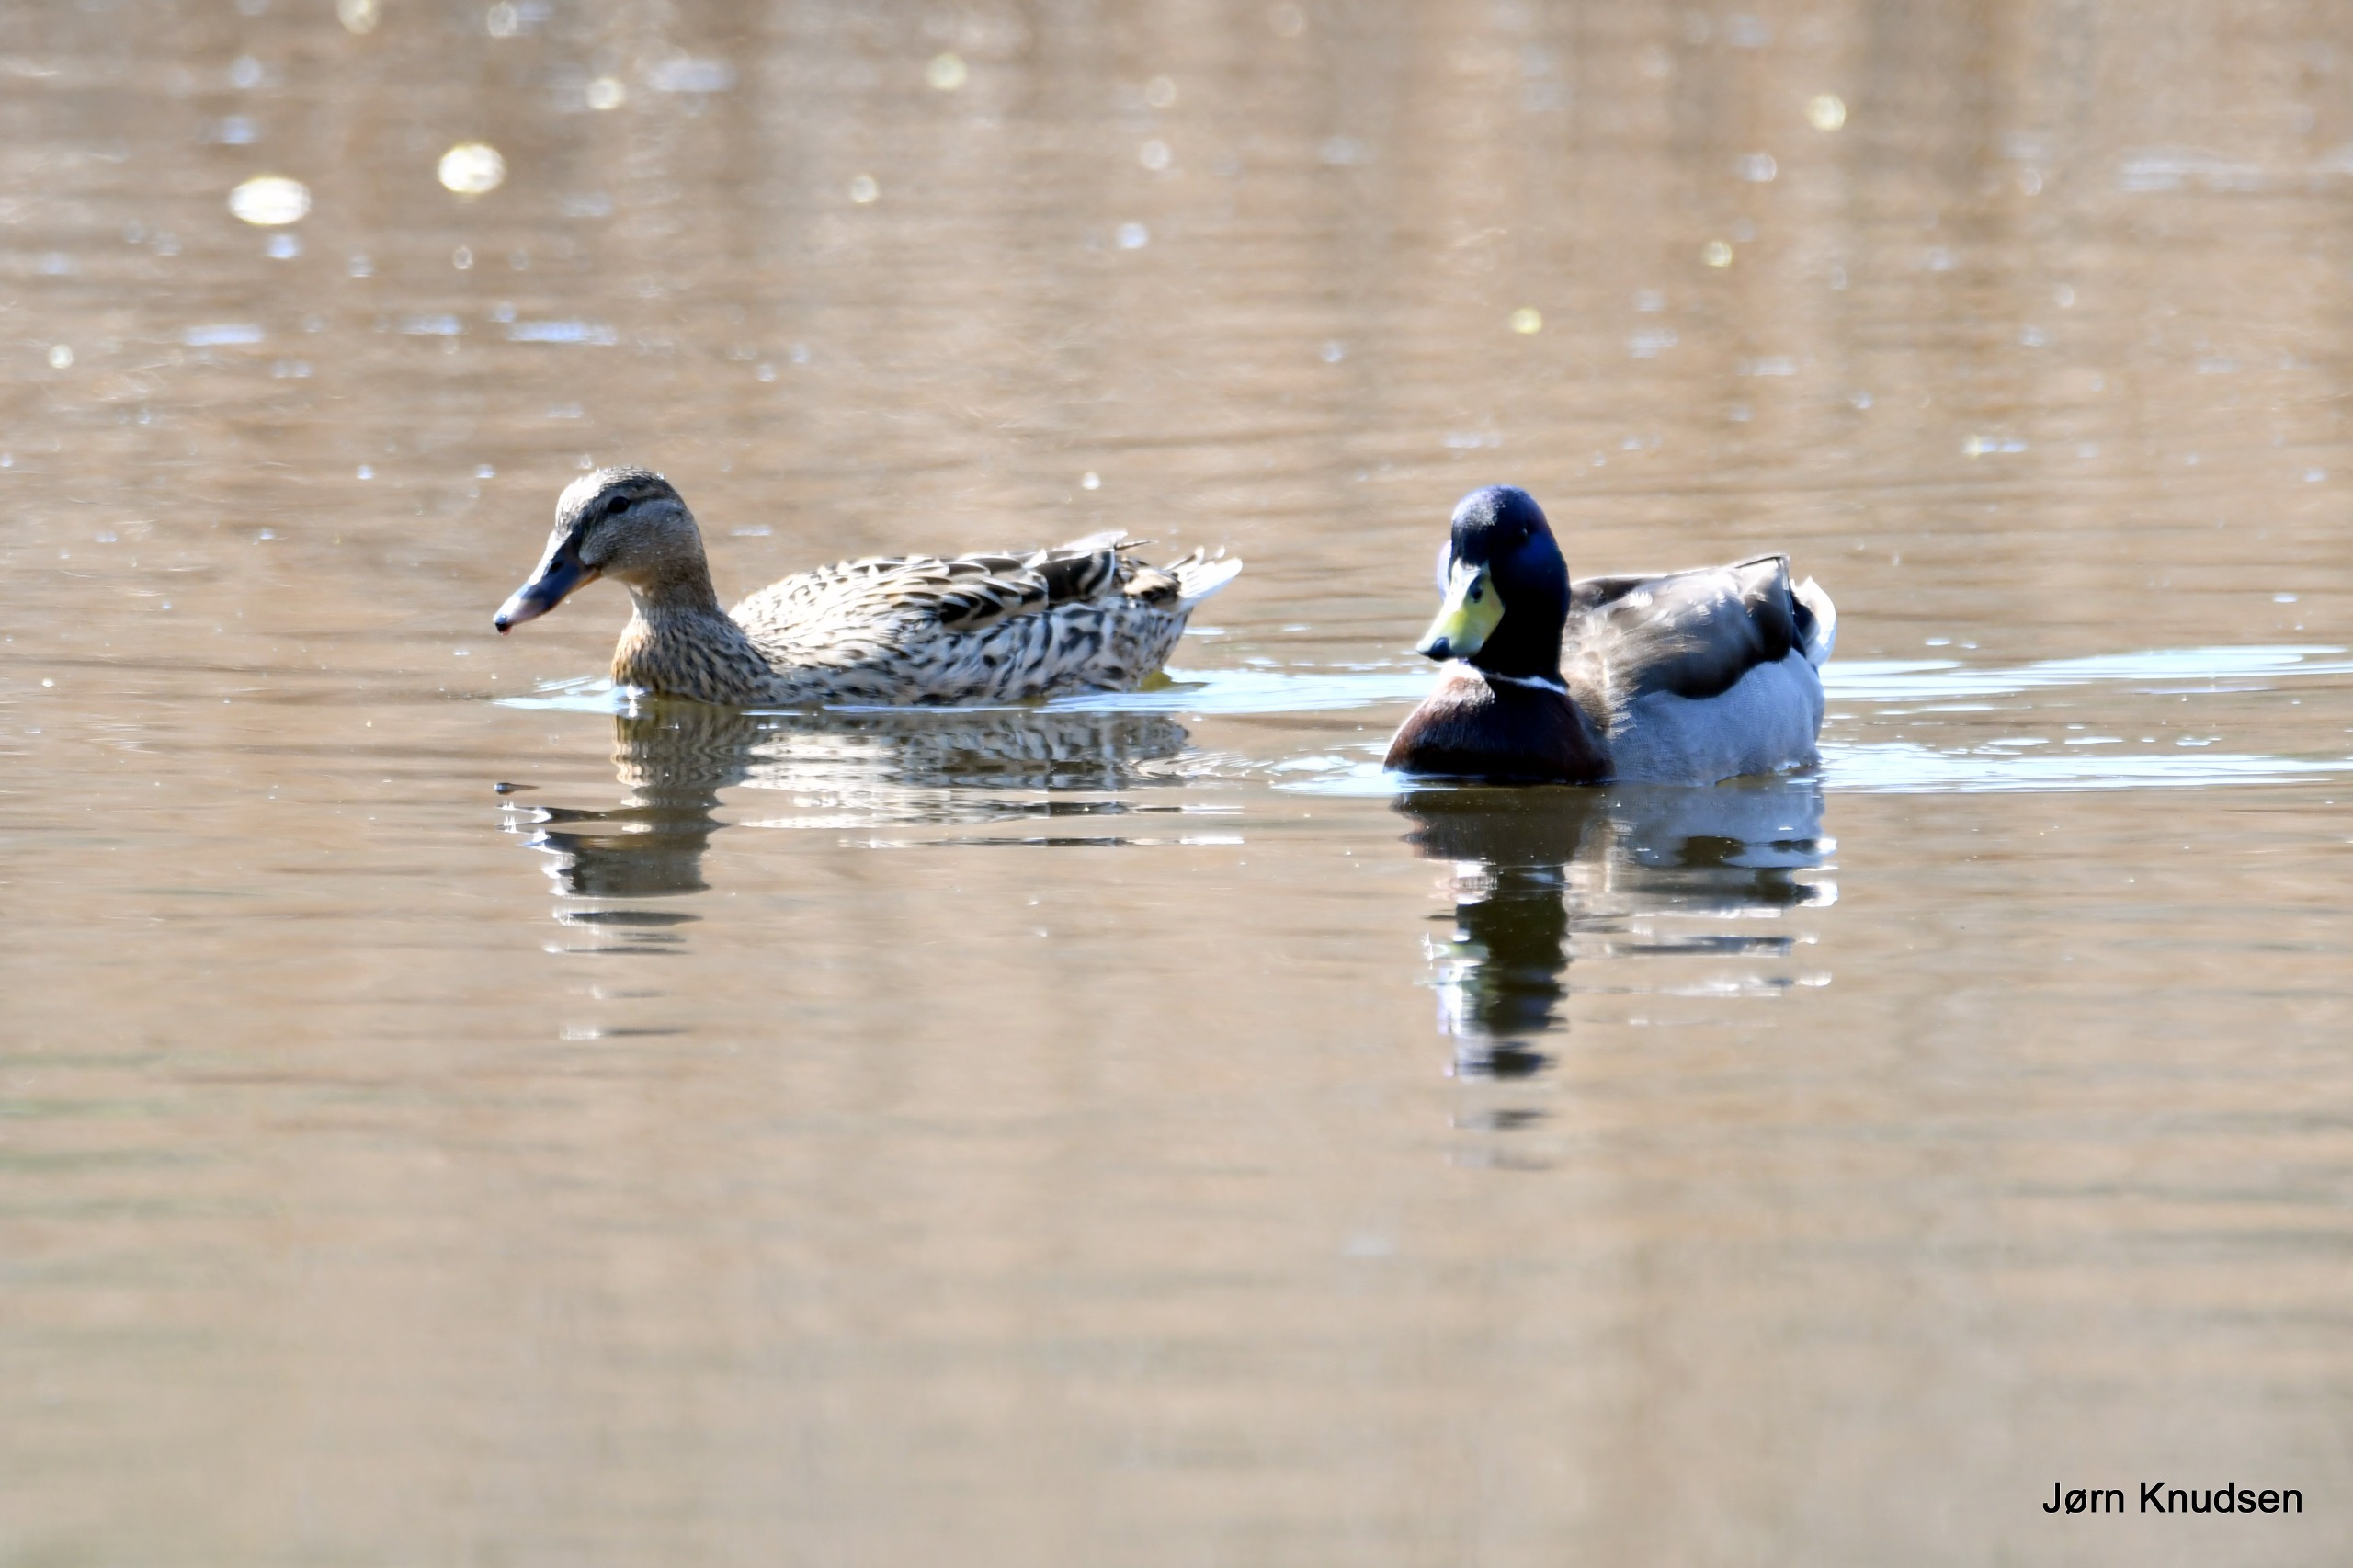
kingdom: Animalia
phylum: Chordata
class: Aves
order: Anseriformes
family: Anatidae
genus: Anas
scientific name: Anas platyrhynchos
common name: Gråand
